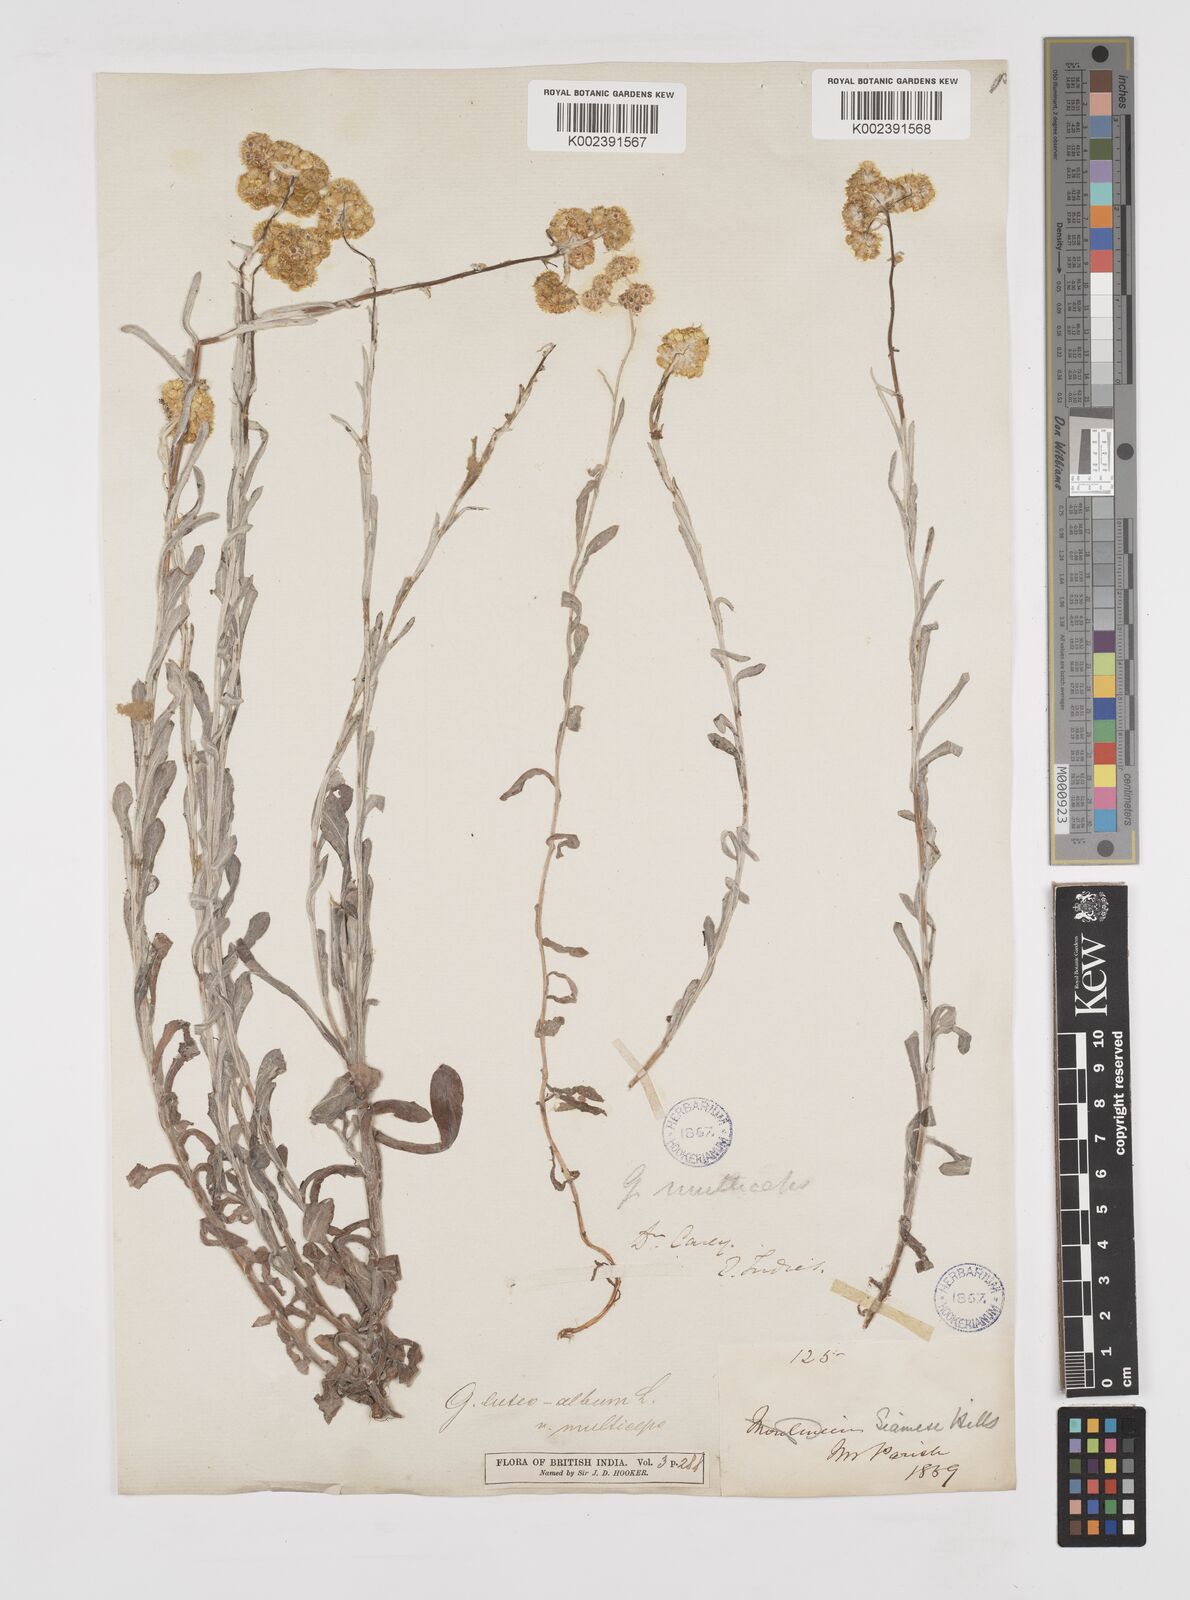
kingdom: Plantae
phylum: Tracheophyta
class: Magnoliopsida
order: Asterales
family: Asteraceae
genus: Pseudognaphalium
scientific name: Pseudognaphalium affine
